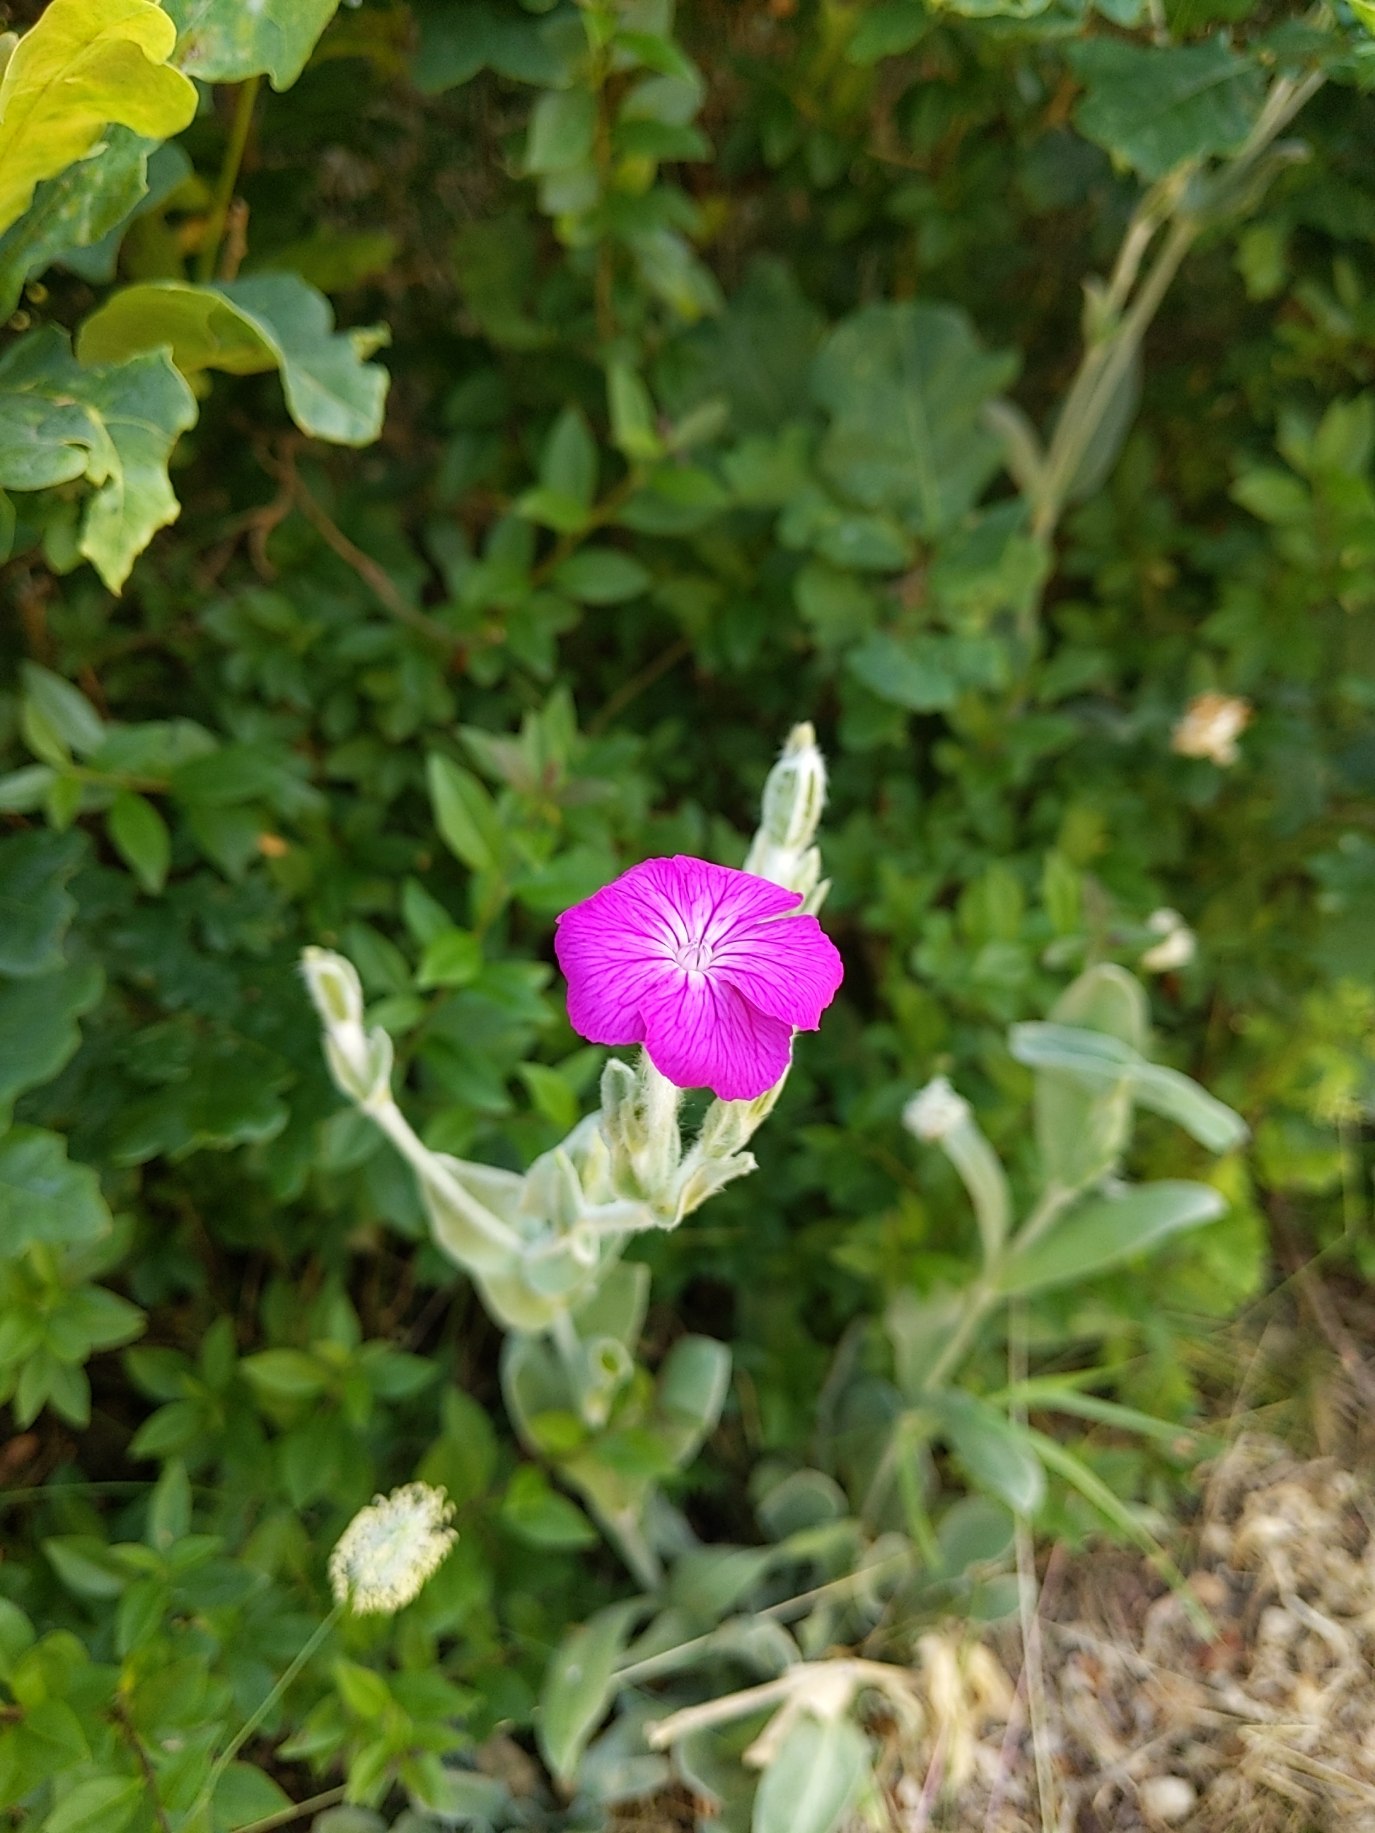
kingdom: Plantae
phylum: Tracheophyta
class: Magnoliopsida
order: Caryophyllales
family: Caryophyllaceae
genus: Silene
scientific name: Silene coronaria
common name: Fiksernellike
